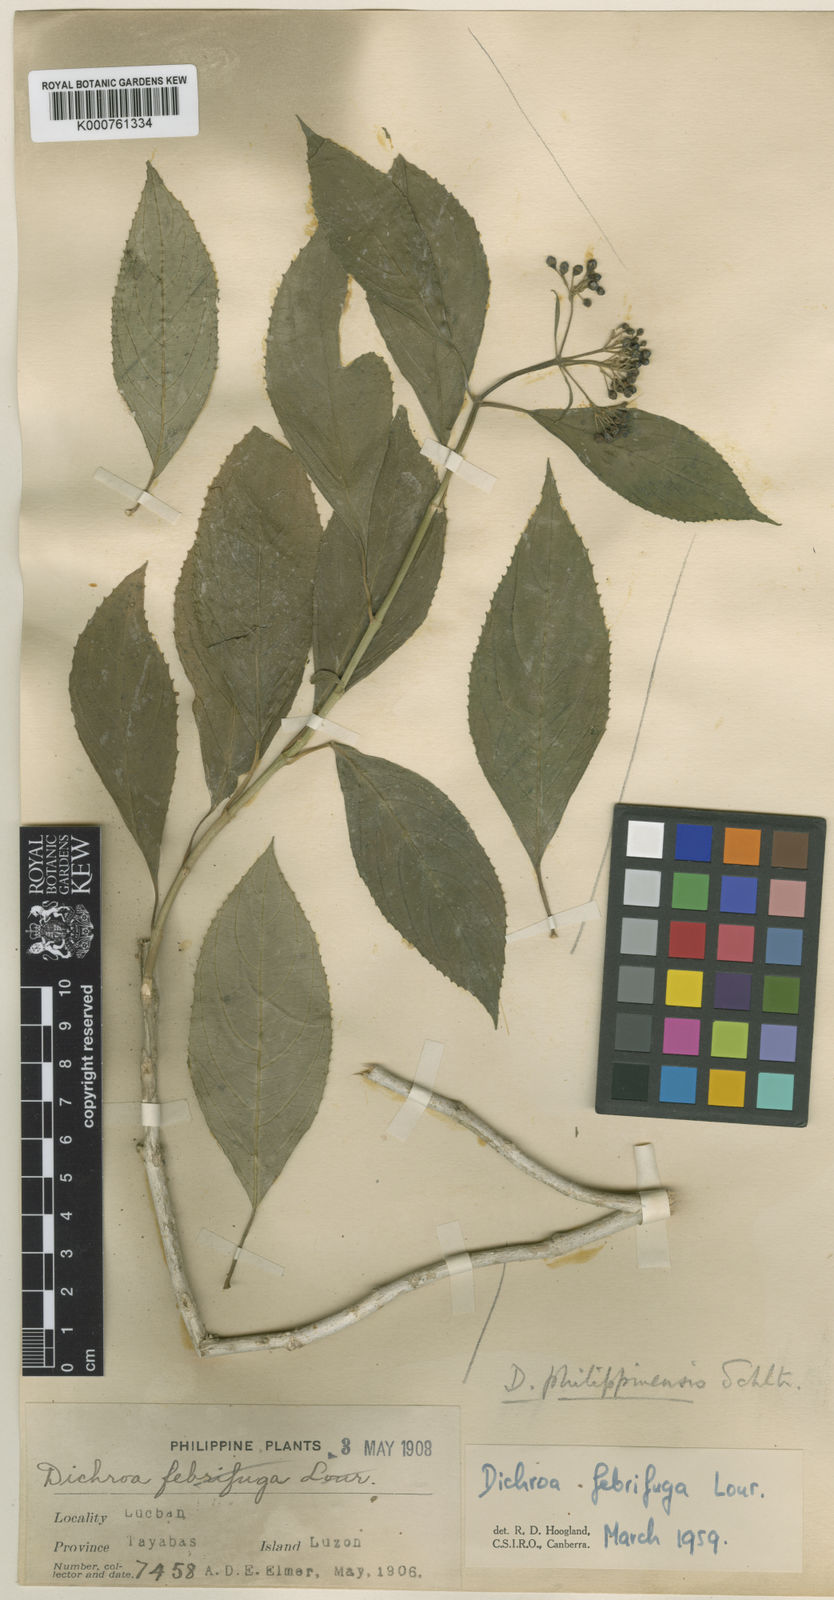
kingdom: Plantae
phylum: Tracheophyta
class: Magnoliopsida
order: Cornales
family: Hydrangeaceae
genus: Hydrangea
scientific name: Hydrangea febrifuga
